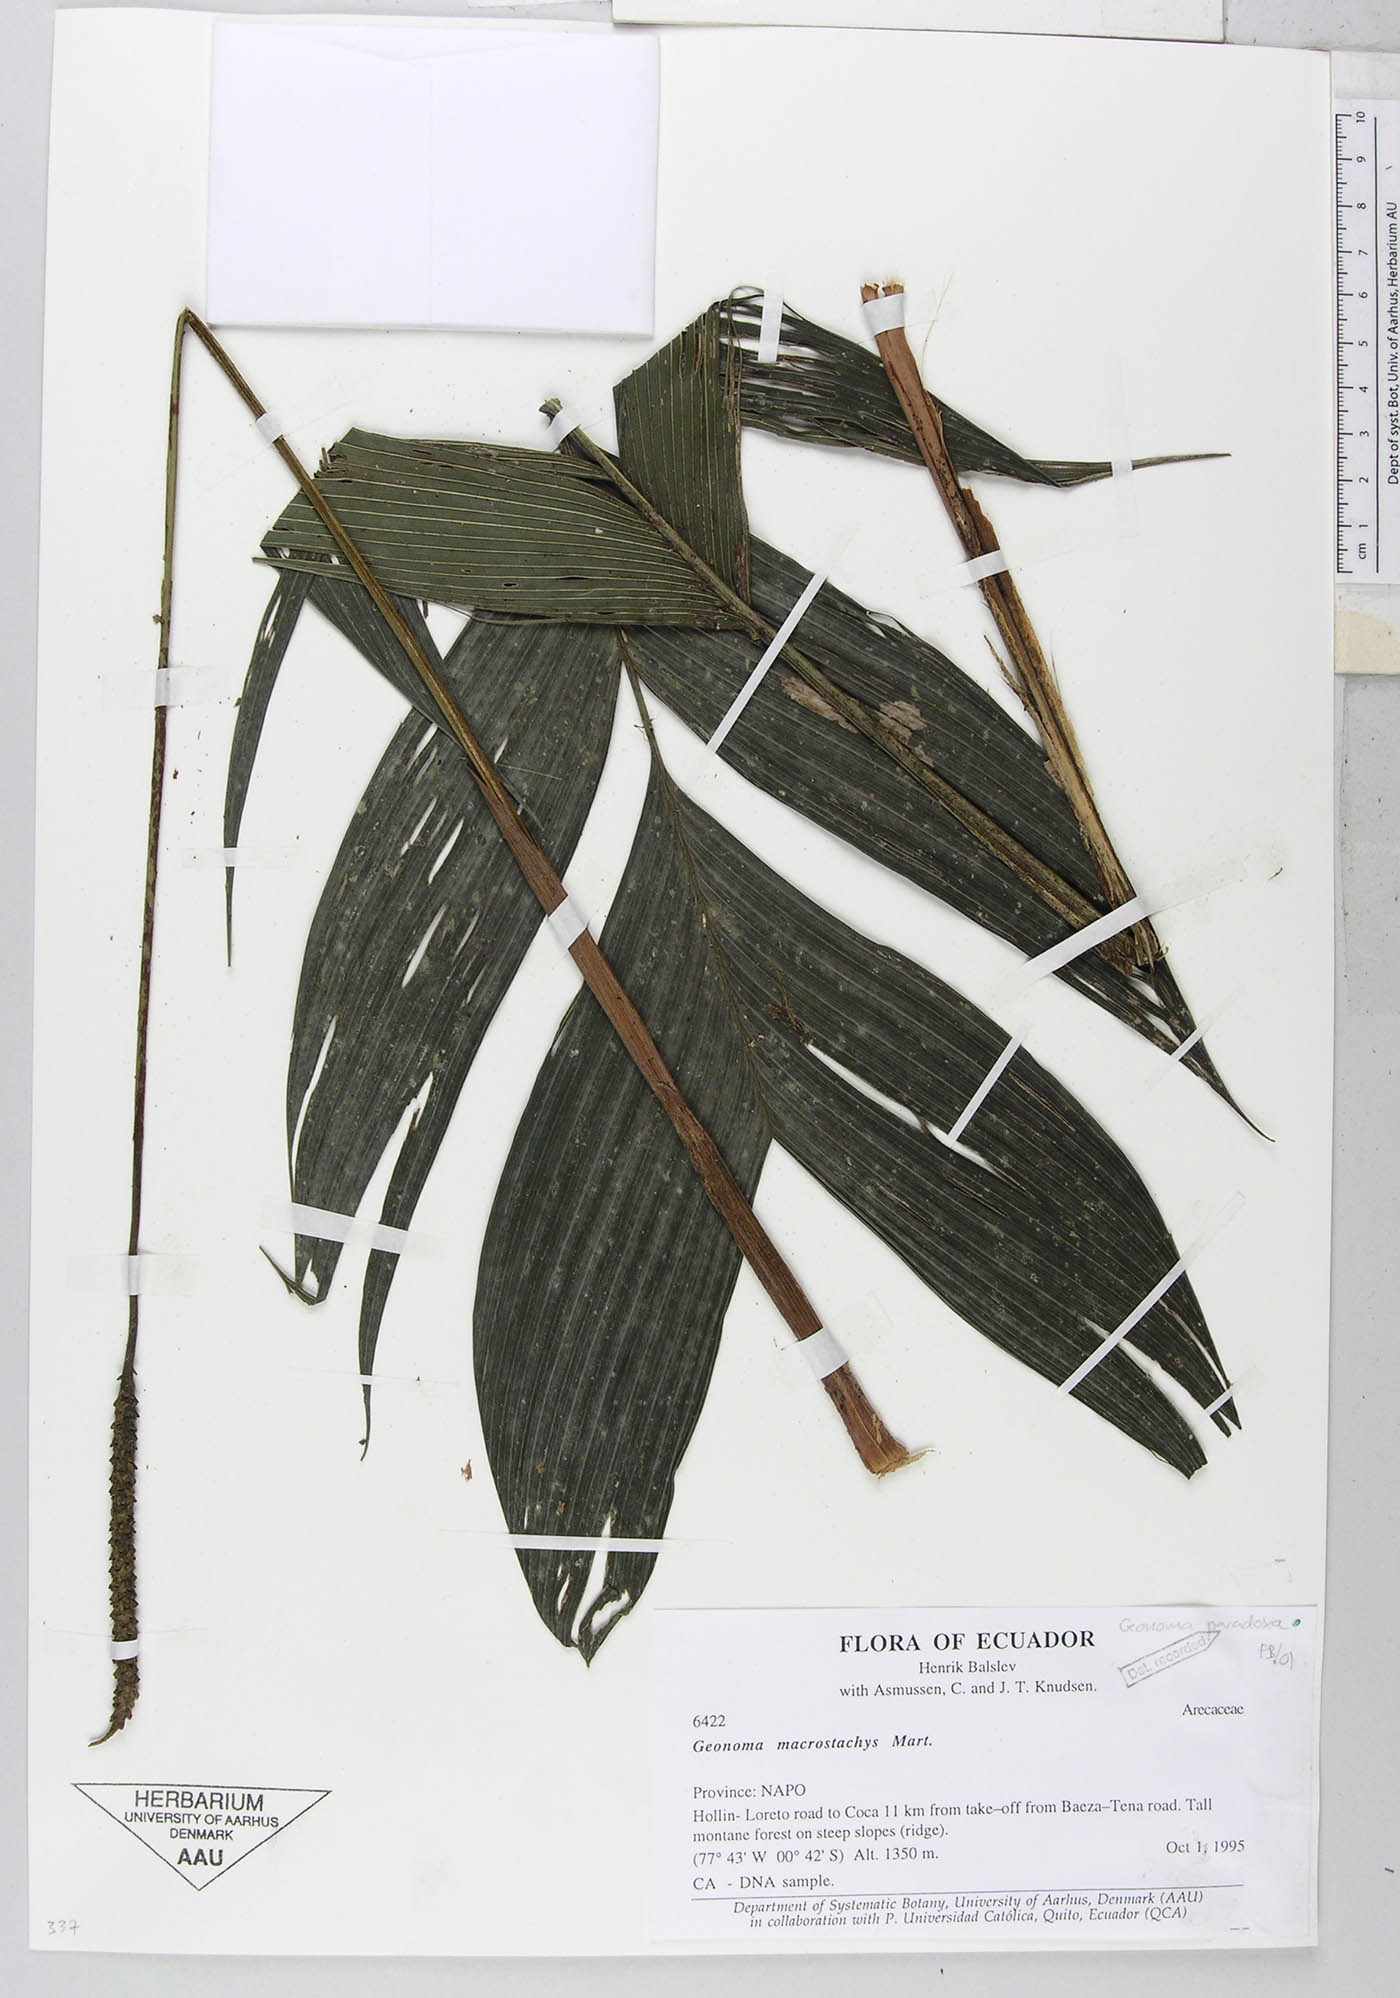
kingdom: Plantae
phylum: Tracheophyta
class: Liliopsida
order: Arecales
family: Arecaceae
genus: Geonoma
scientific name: Geonoma macrostachys
